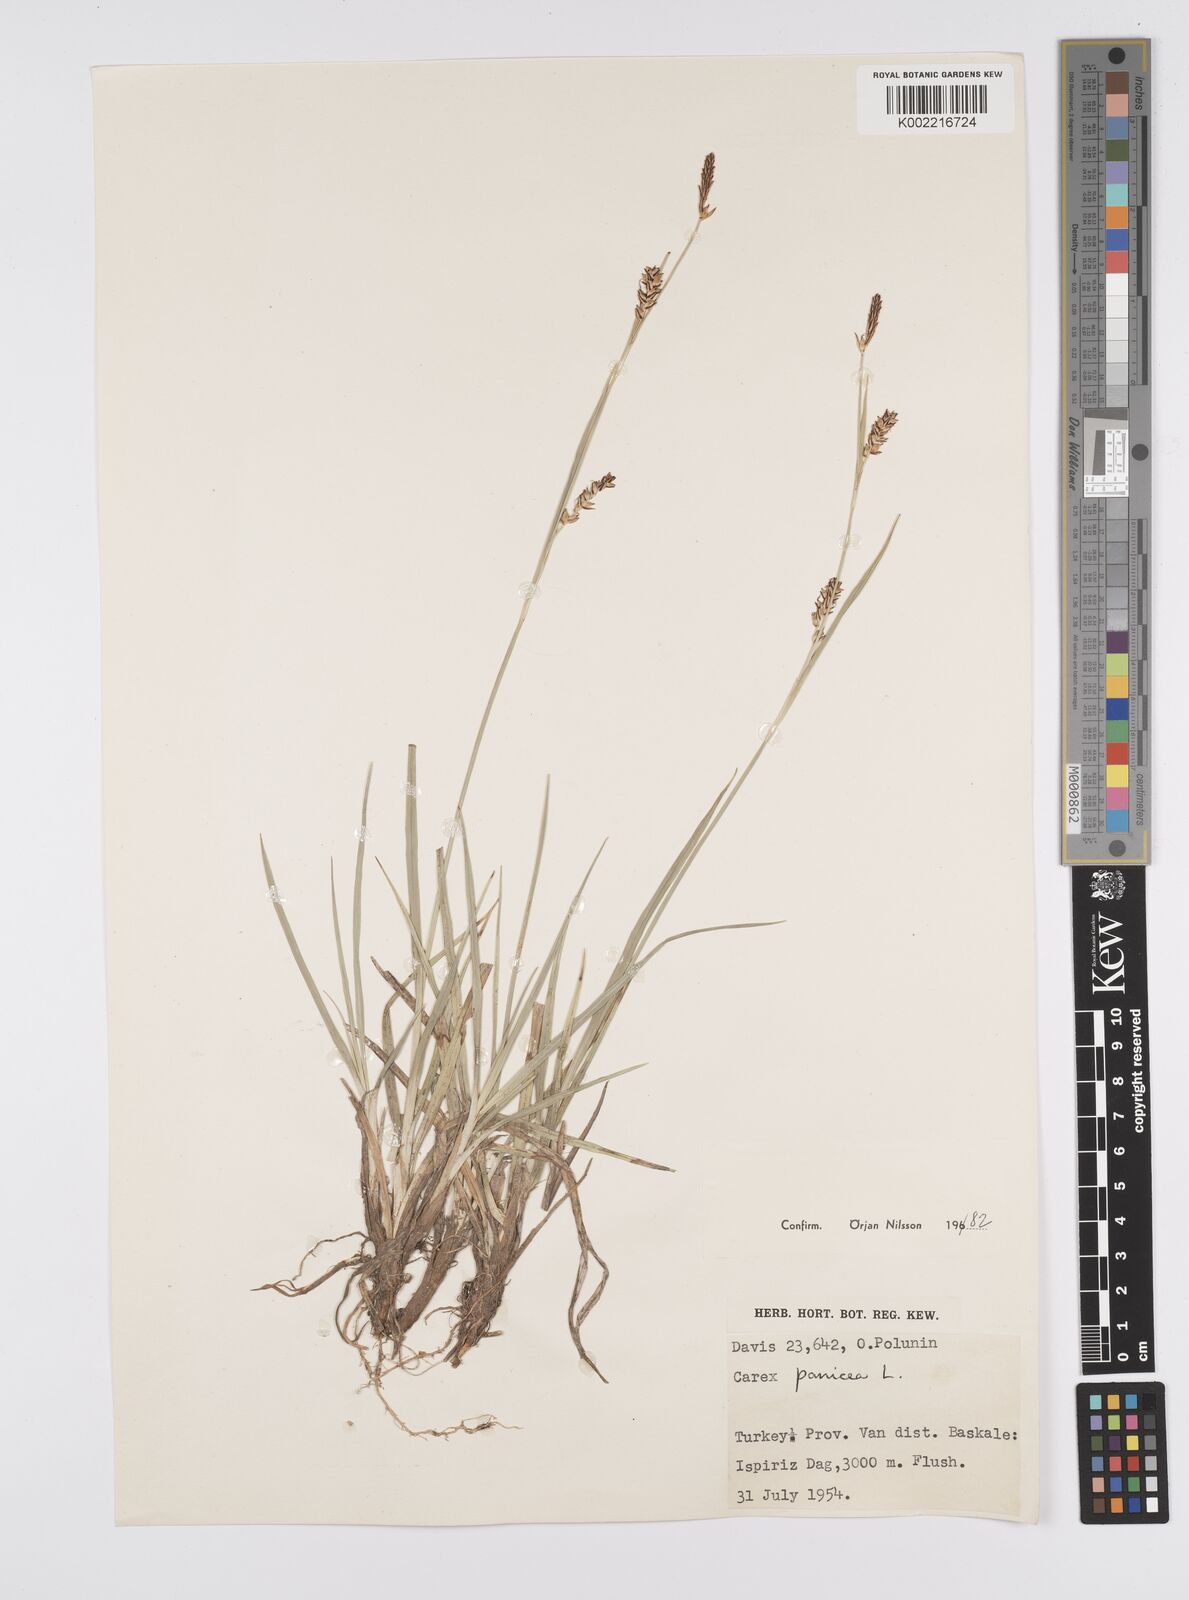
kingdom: Plantae
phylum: Tracheophyta
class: Liliopsida
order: Poales
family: Cyperaceae
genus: Carex
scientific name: Carex panicea
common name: Carnation sedge
